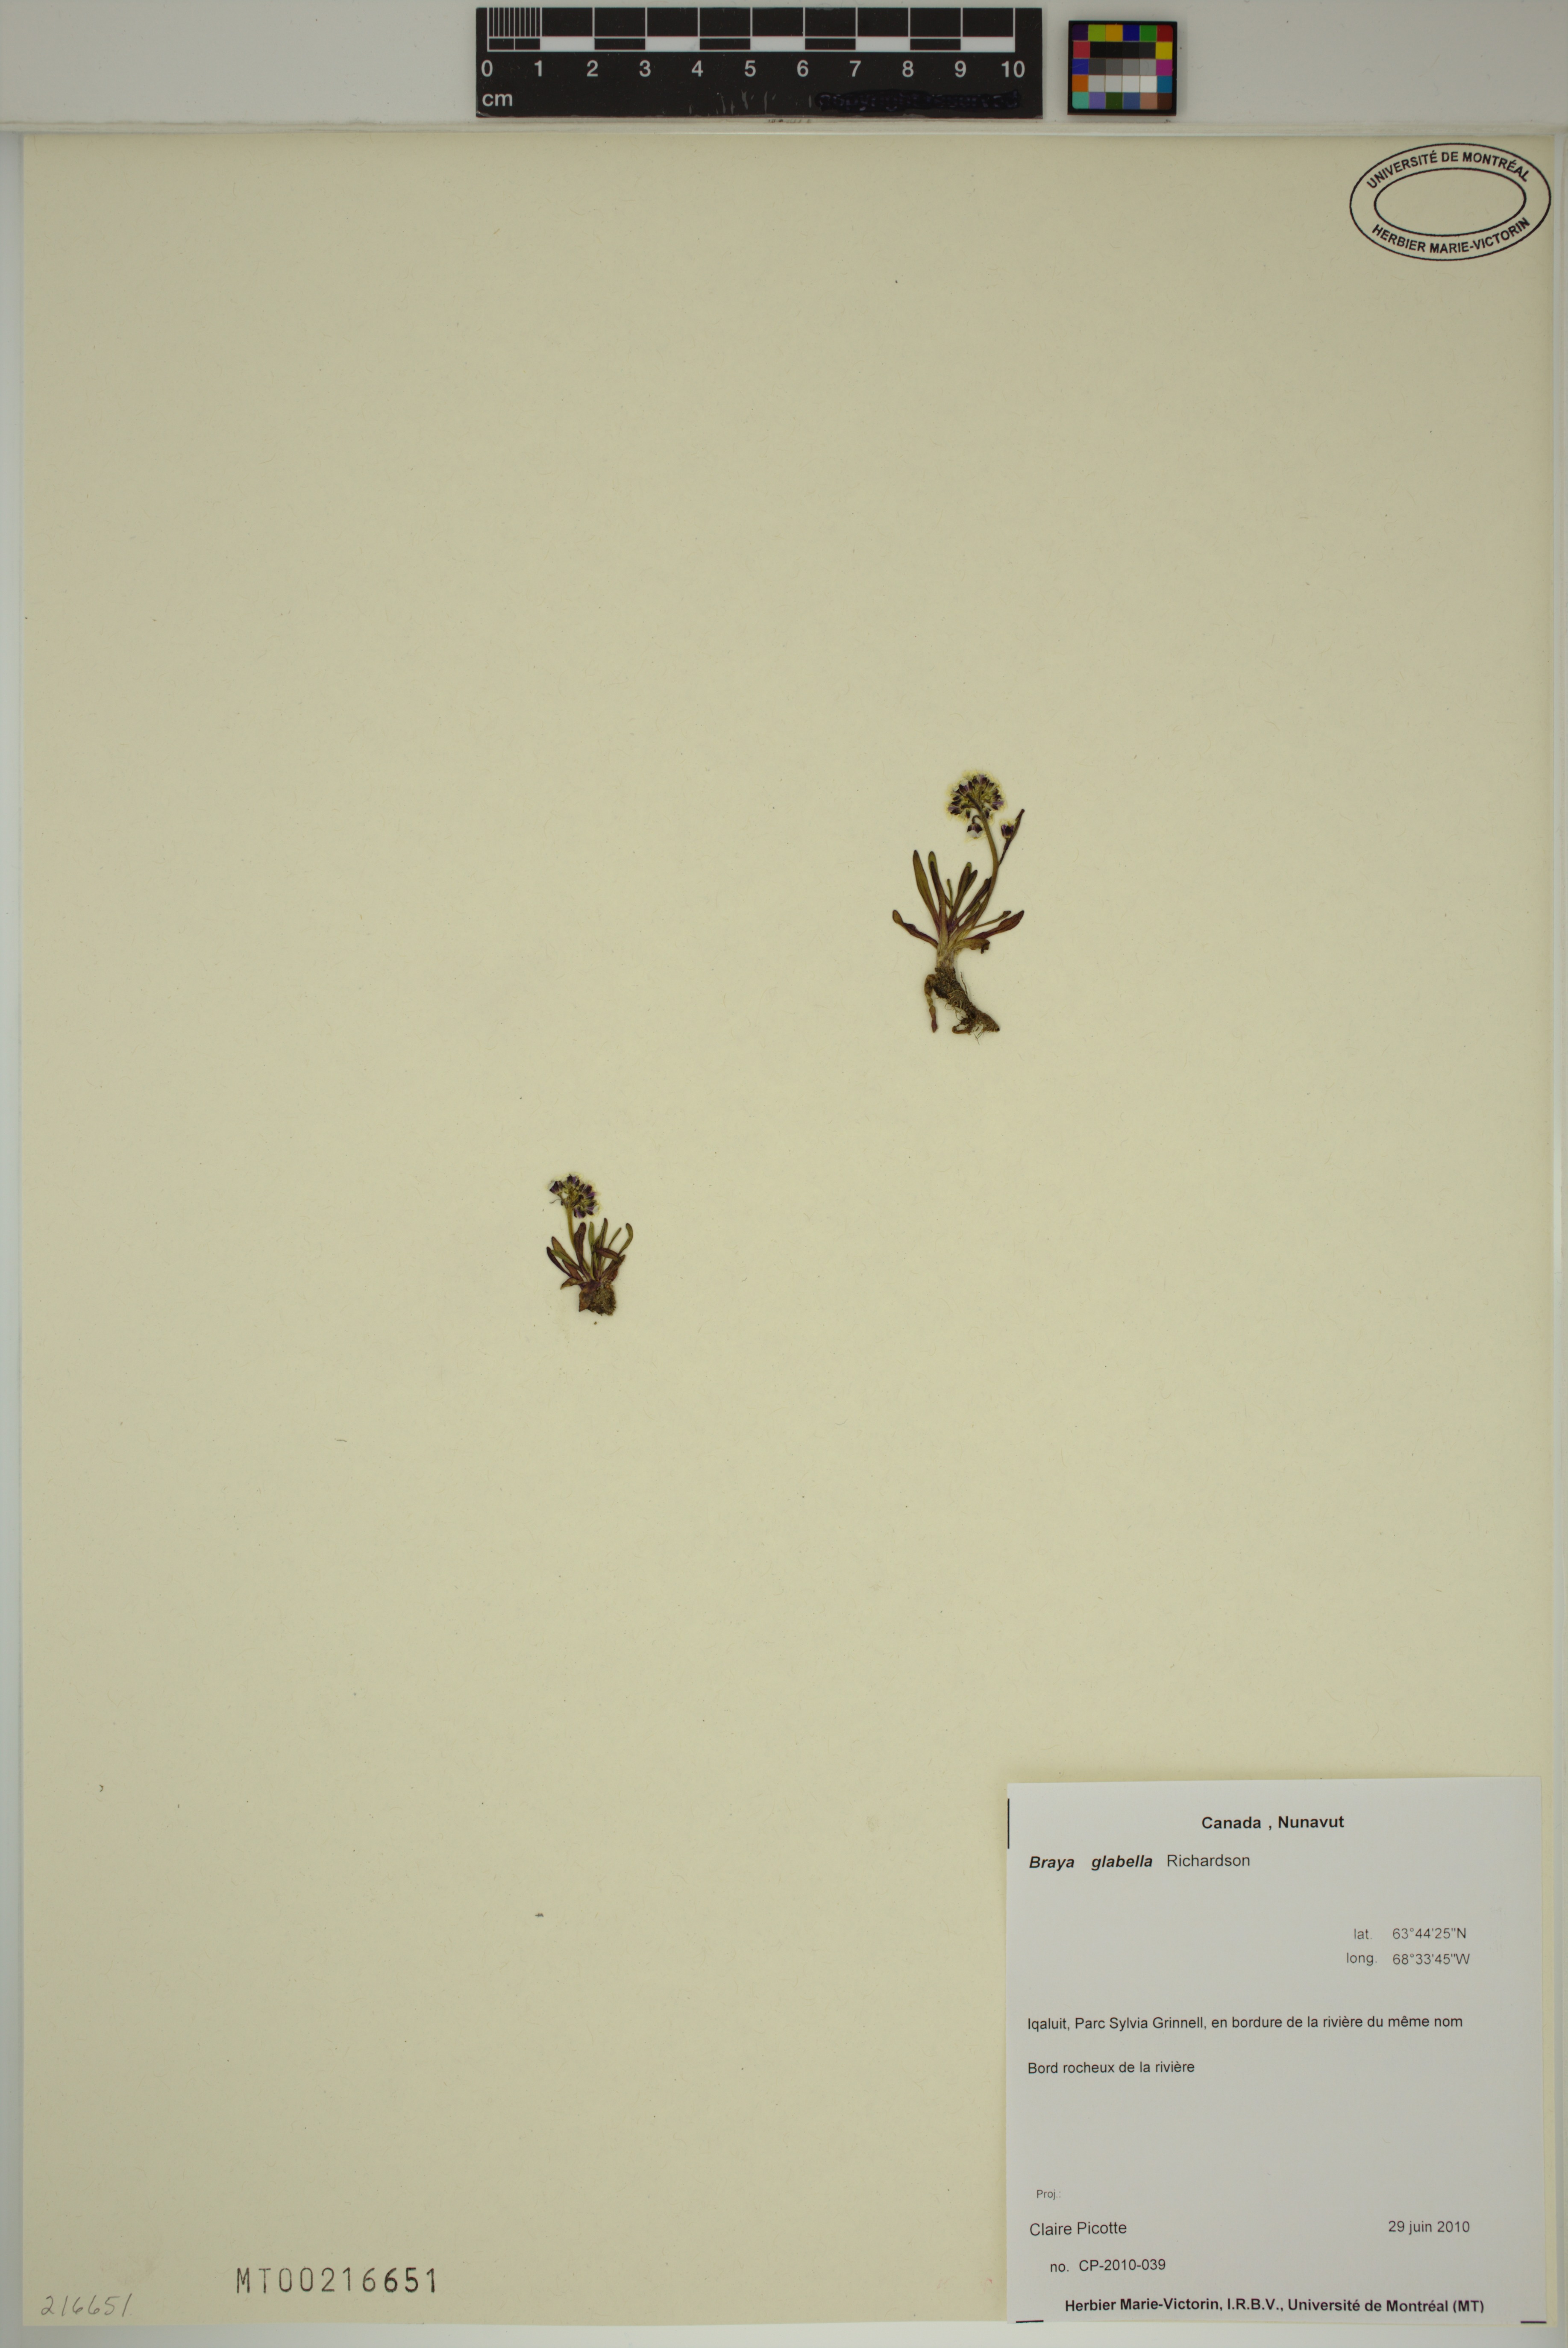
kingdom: Plantae
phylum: Tracheophyta
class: Magnoliopsida
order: Brassicales
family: Brassicaceae
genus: Braya
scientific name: Braya glabella
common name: Smooth braya
